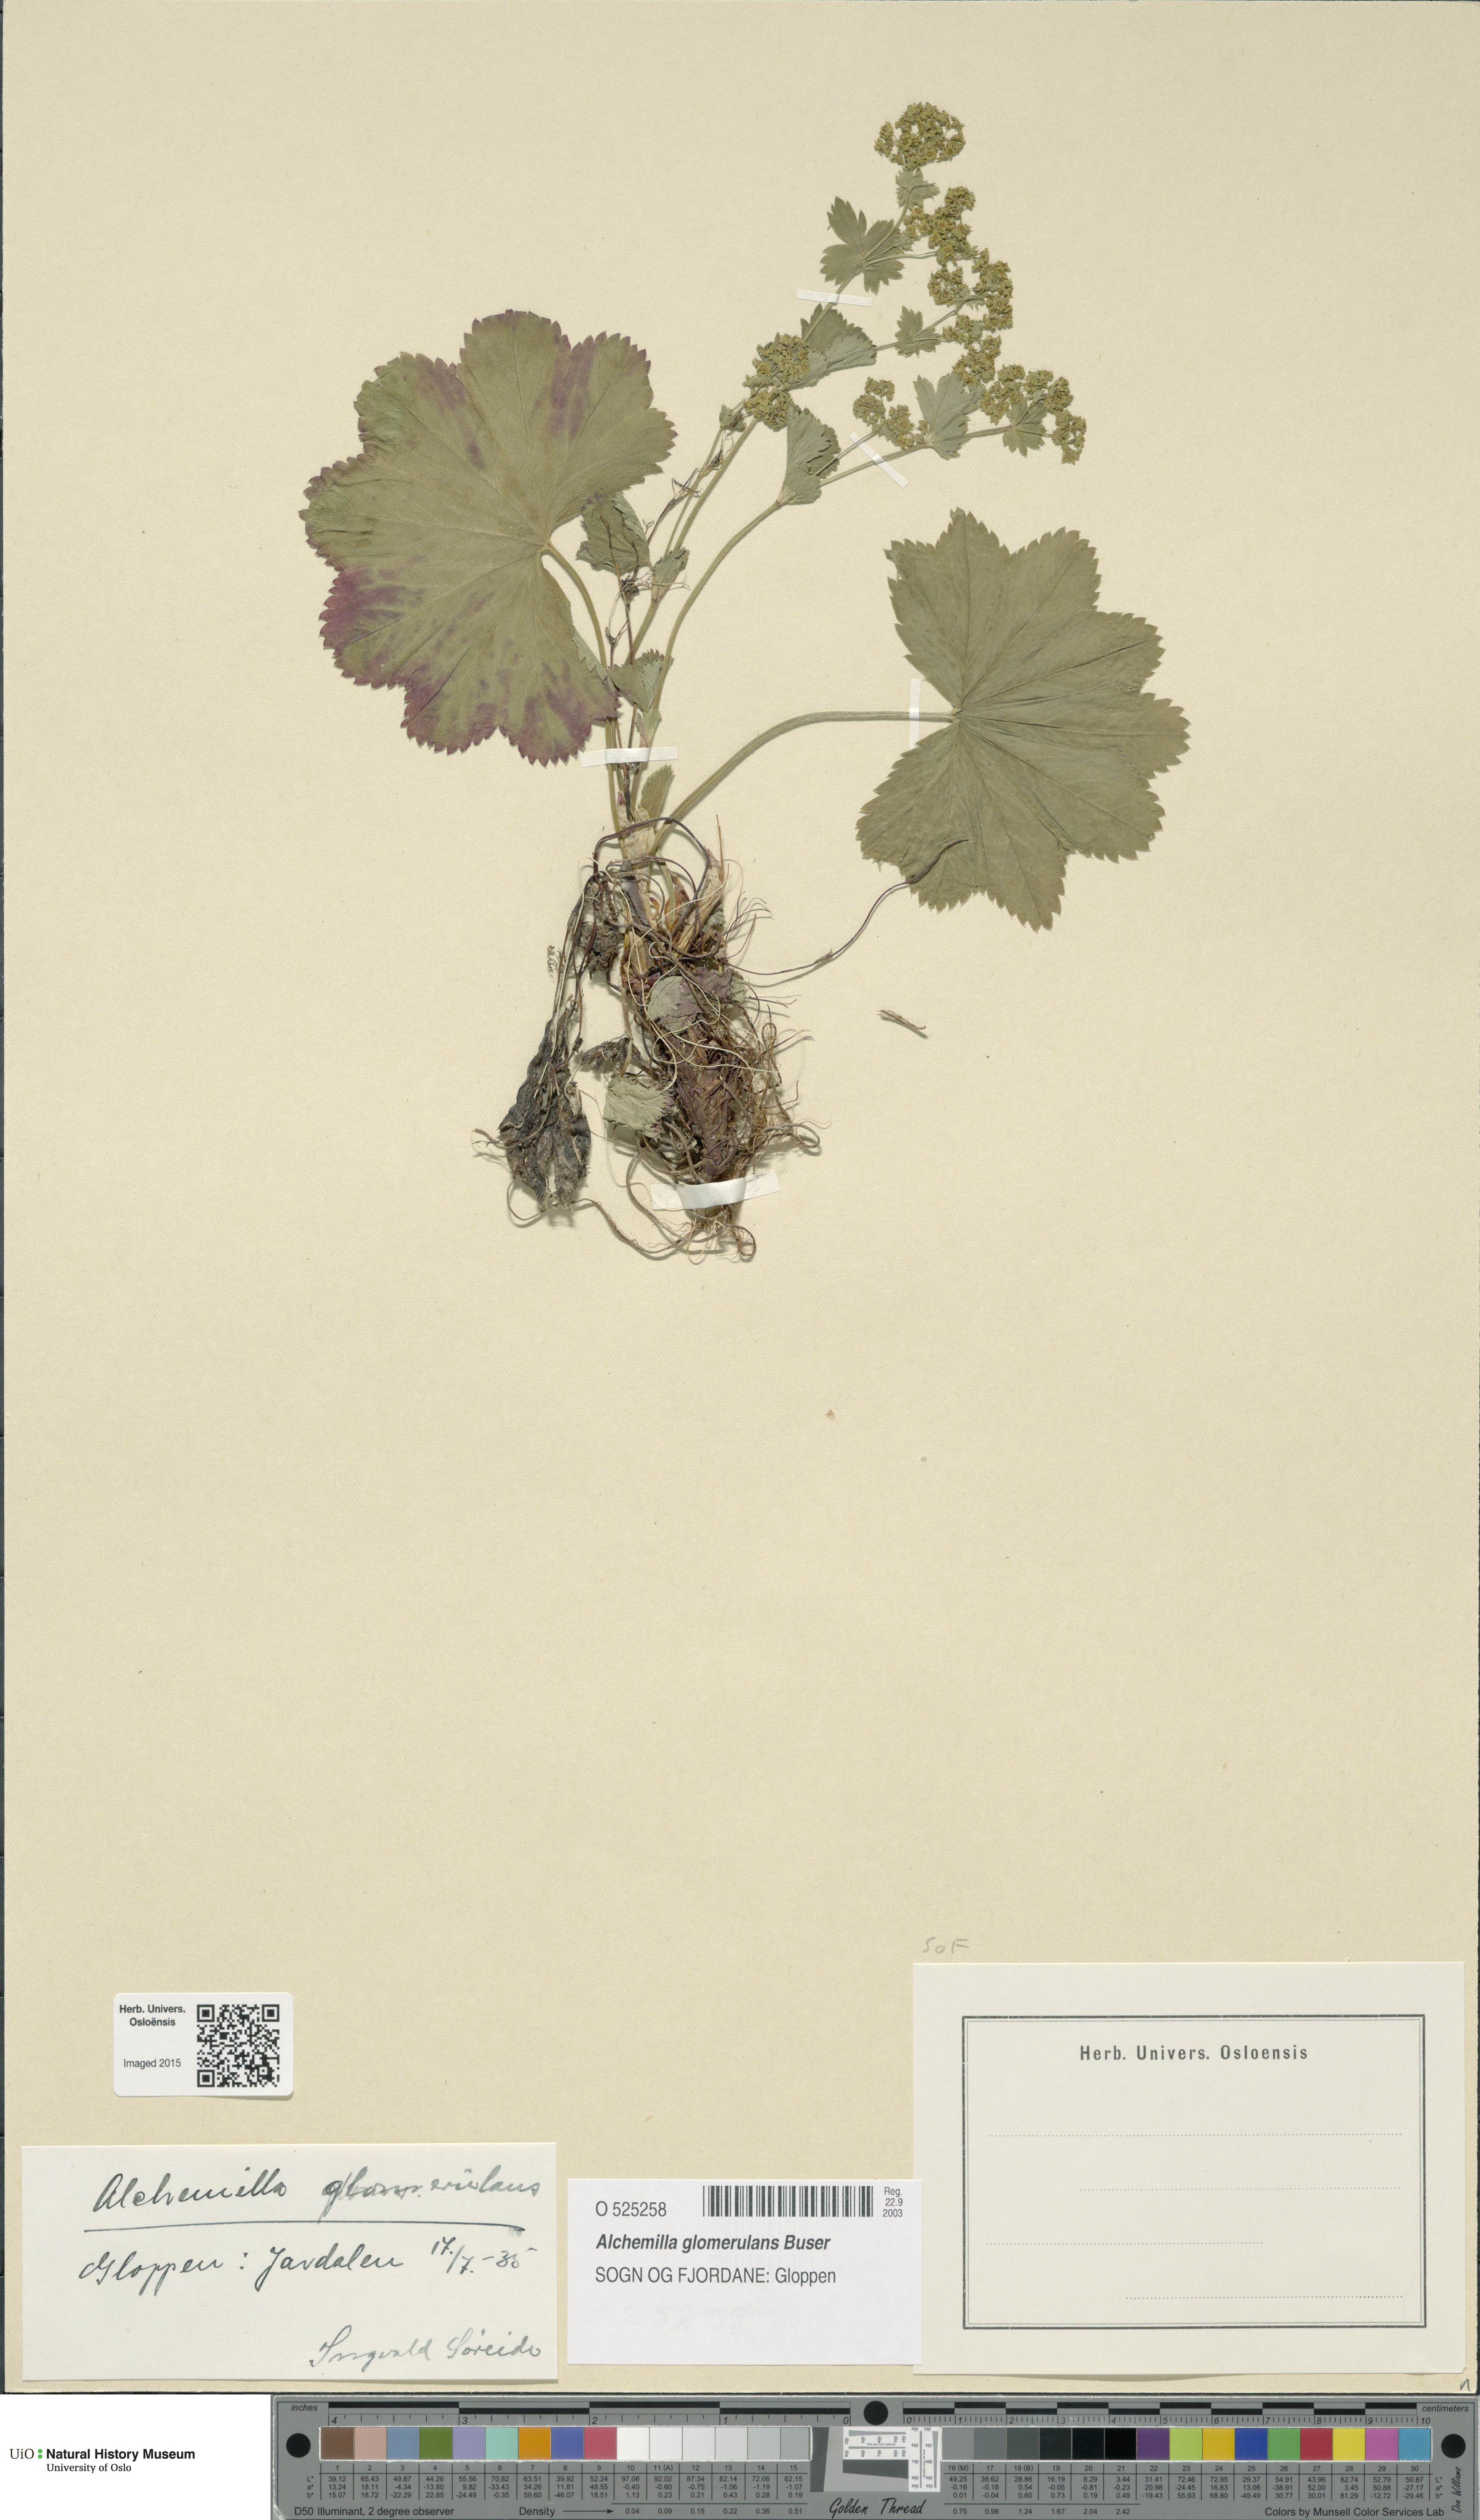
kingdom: Plantae
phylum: Tracheophyta
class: Magnoliopsida
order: Rosales
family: Rosaceae
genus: Alchemilla
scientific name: Alchemilla glomerulans
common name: Clustered lady's mantle
